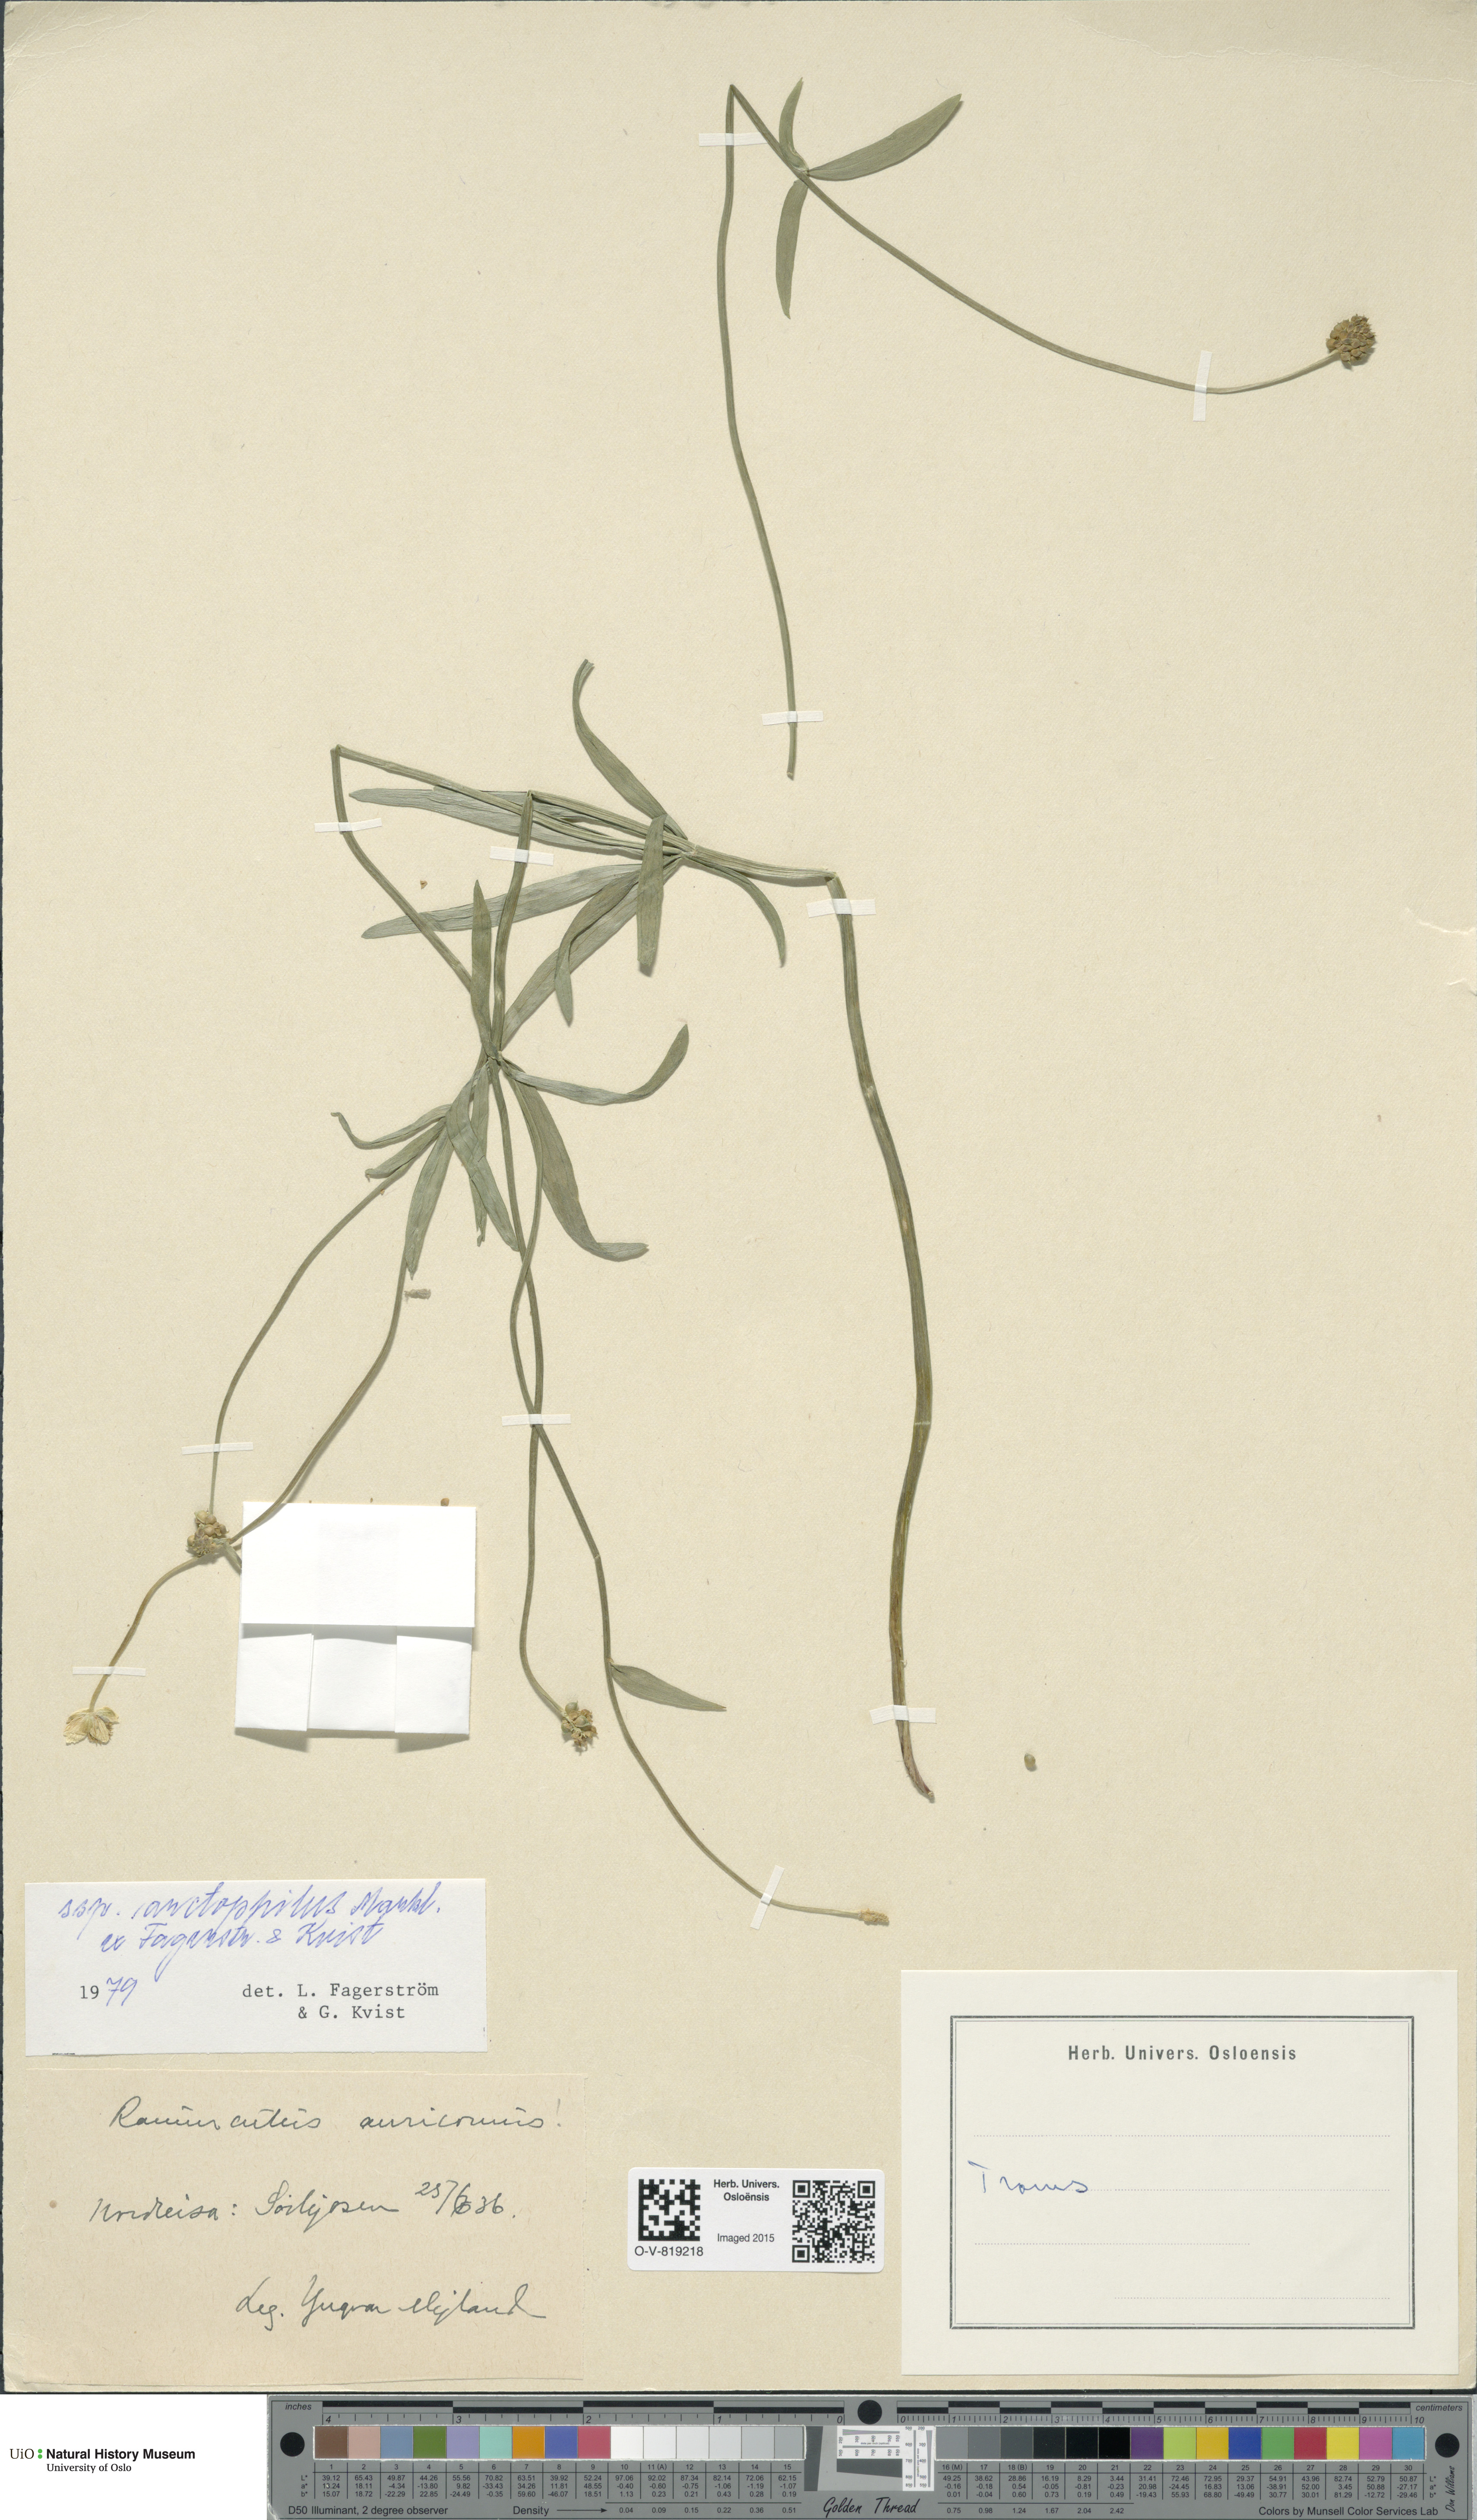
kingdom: Plantae
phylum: Tracheophyta
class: Magnoliopsida
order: Ranunculales
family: Ranunculaceae
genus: Ranunculus
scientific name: Ranunculus arctophilus
